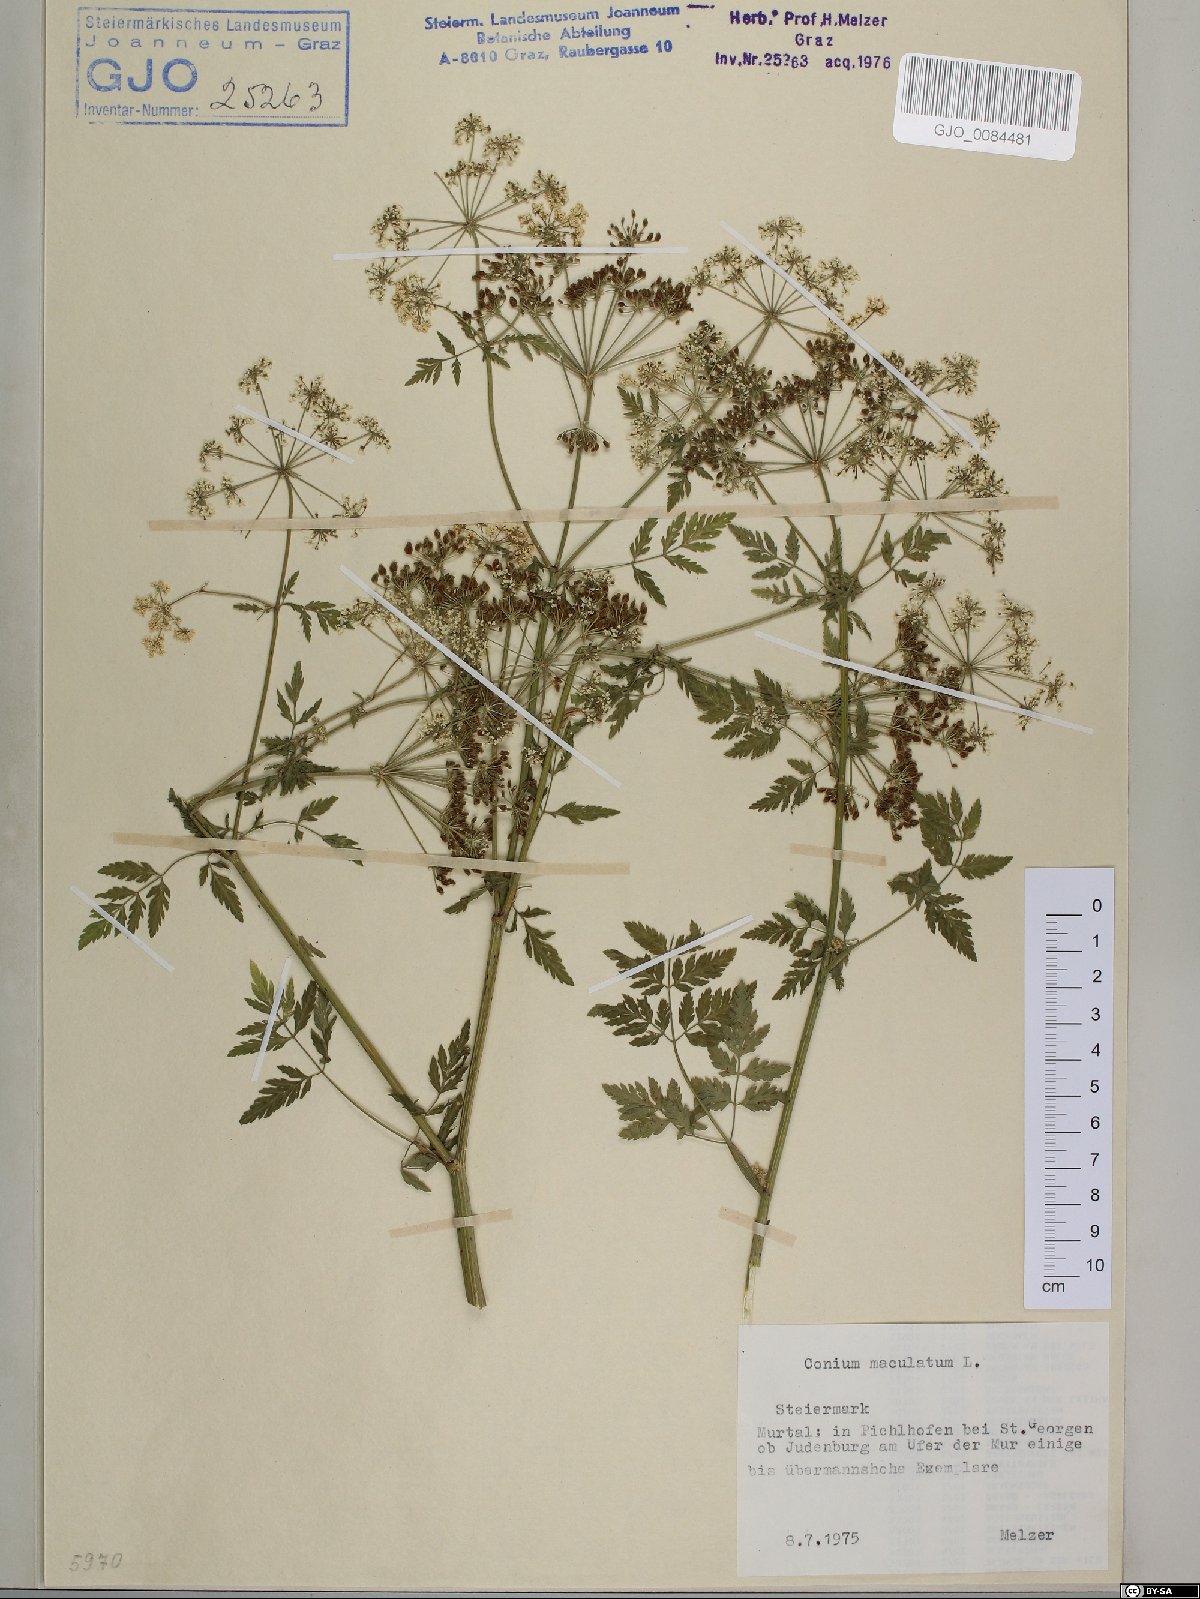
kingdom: Plantae
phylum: Tracheophyta
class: Magnoliopsida
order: Apiales
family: Apiaceae
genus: Conium
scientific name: Conium maculatum
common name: Hemlock
